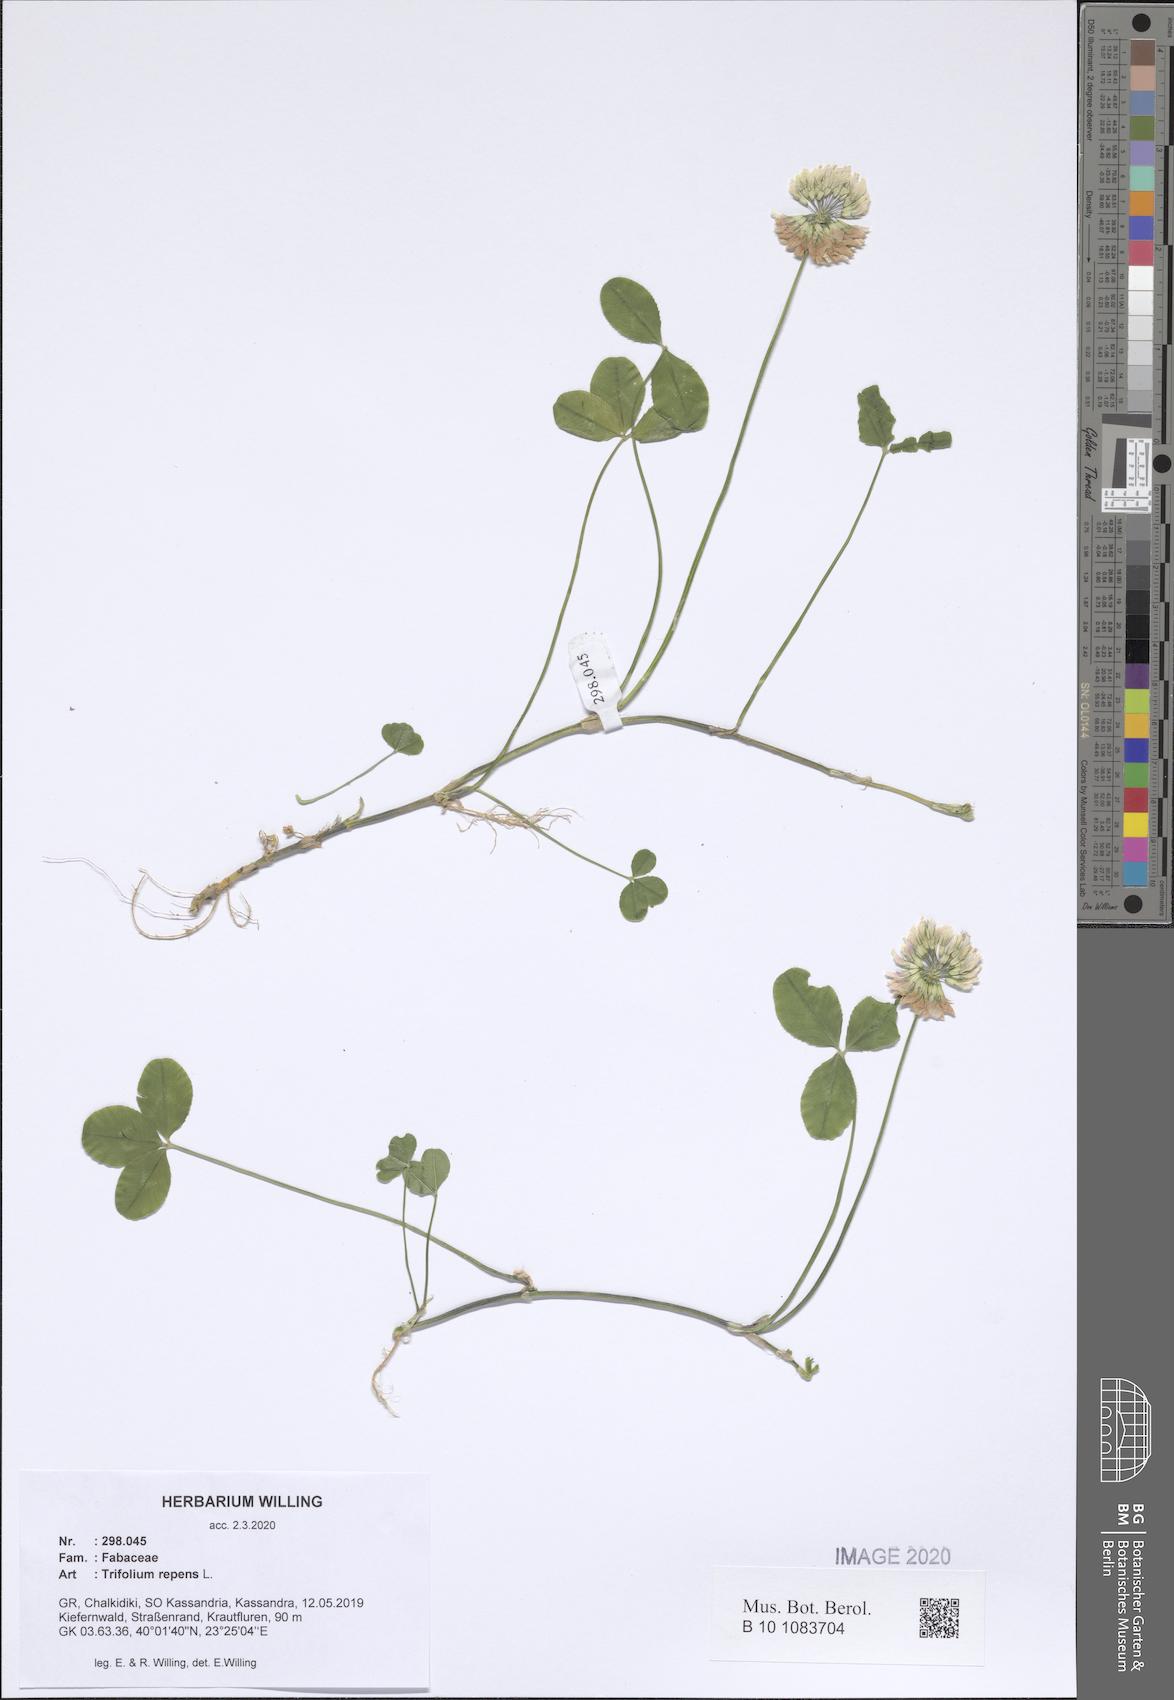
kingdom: Plantae
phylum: Tracheophyta
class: Magnoliopsida
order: Fabales
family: Fabaceae
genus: Trifolium
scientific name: Trifolium repens
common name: White clover
